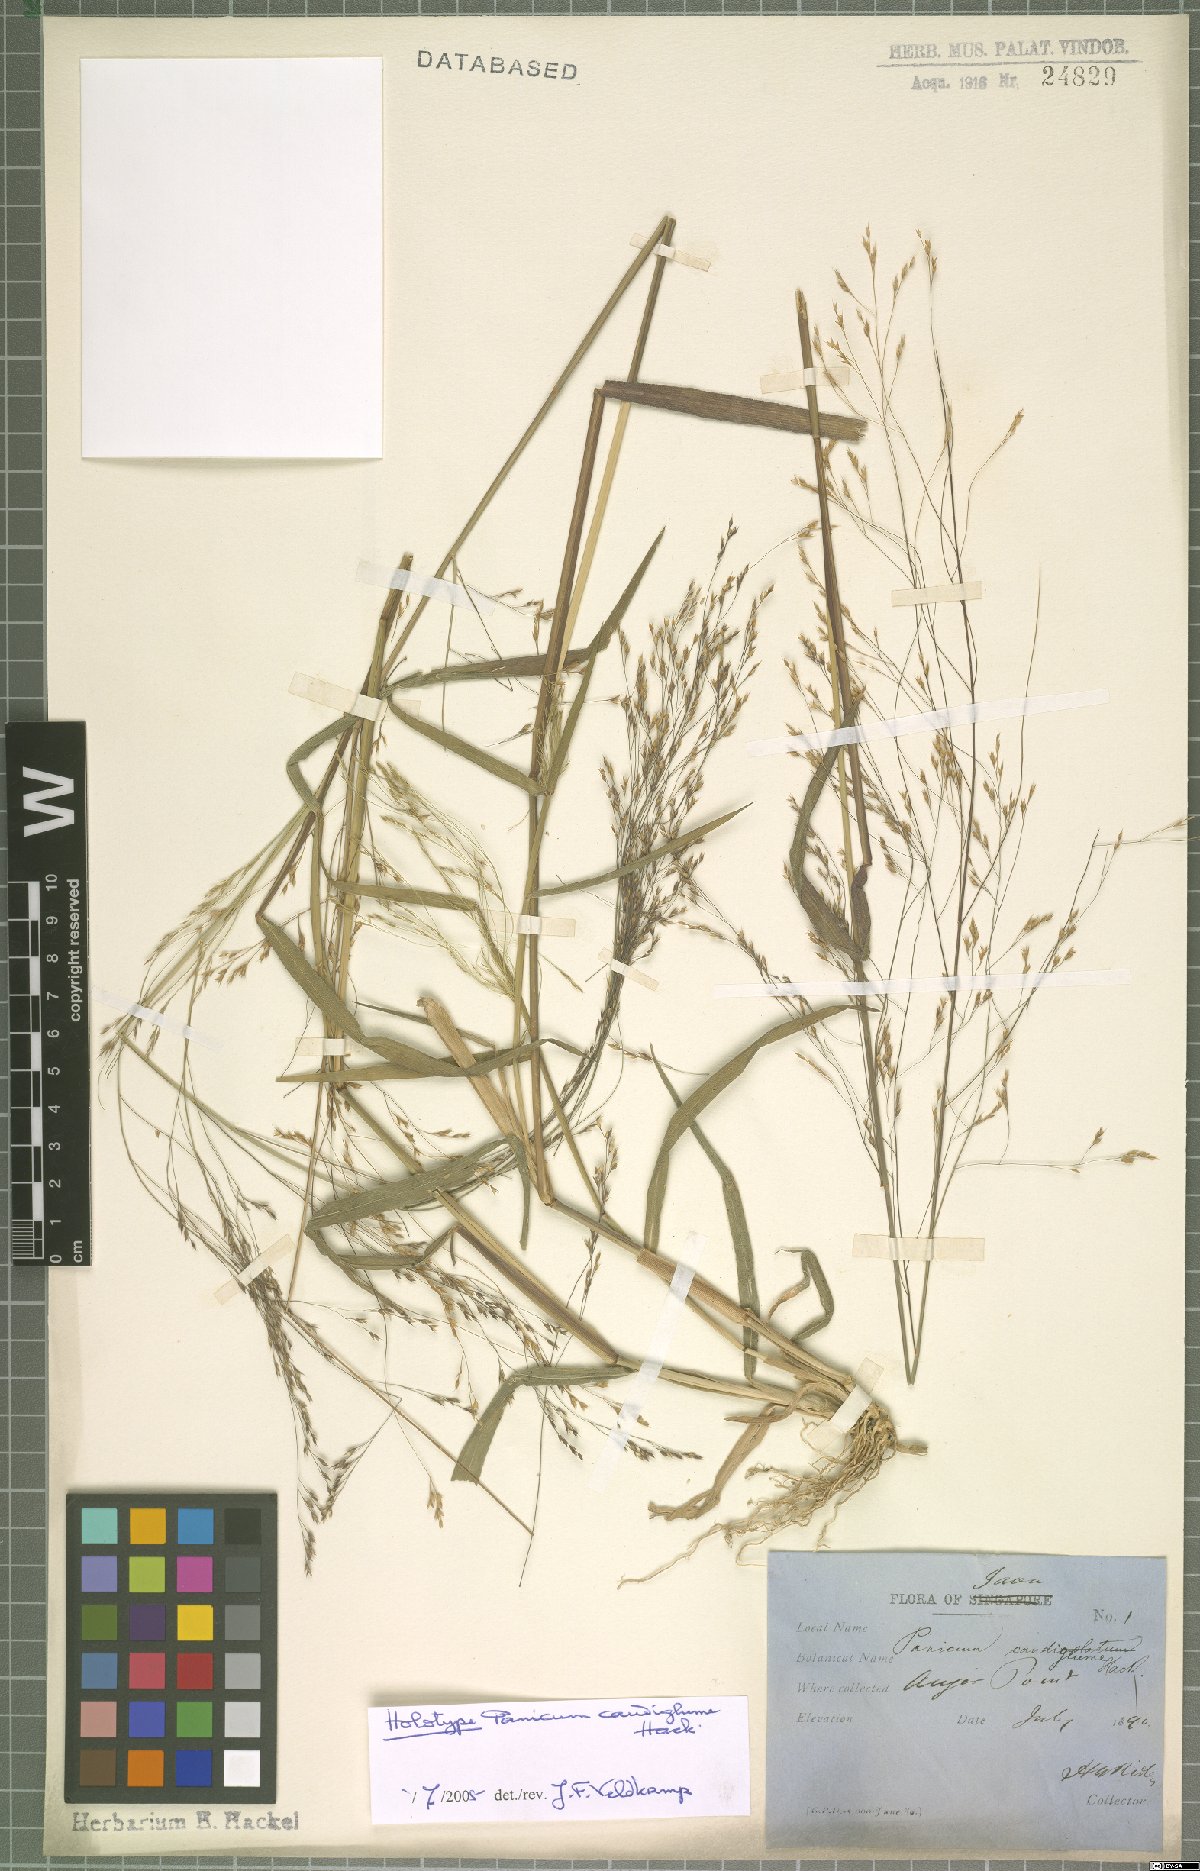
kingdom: Plantae
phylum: Tracheophyta
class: Liliopsida
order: Poales
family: Poaceae
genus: Panicum
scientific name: Panicum caudiglume
